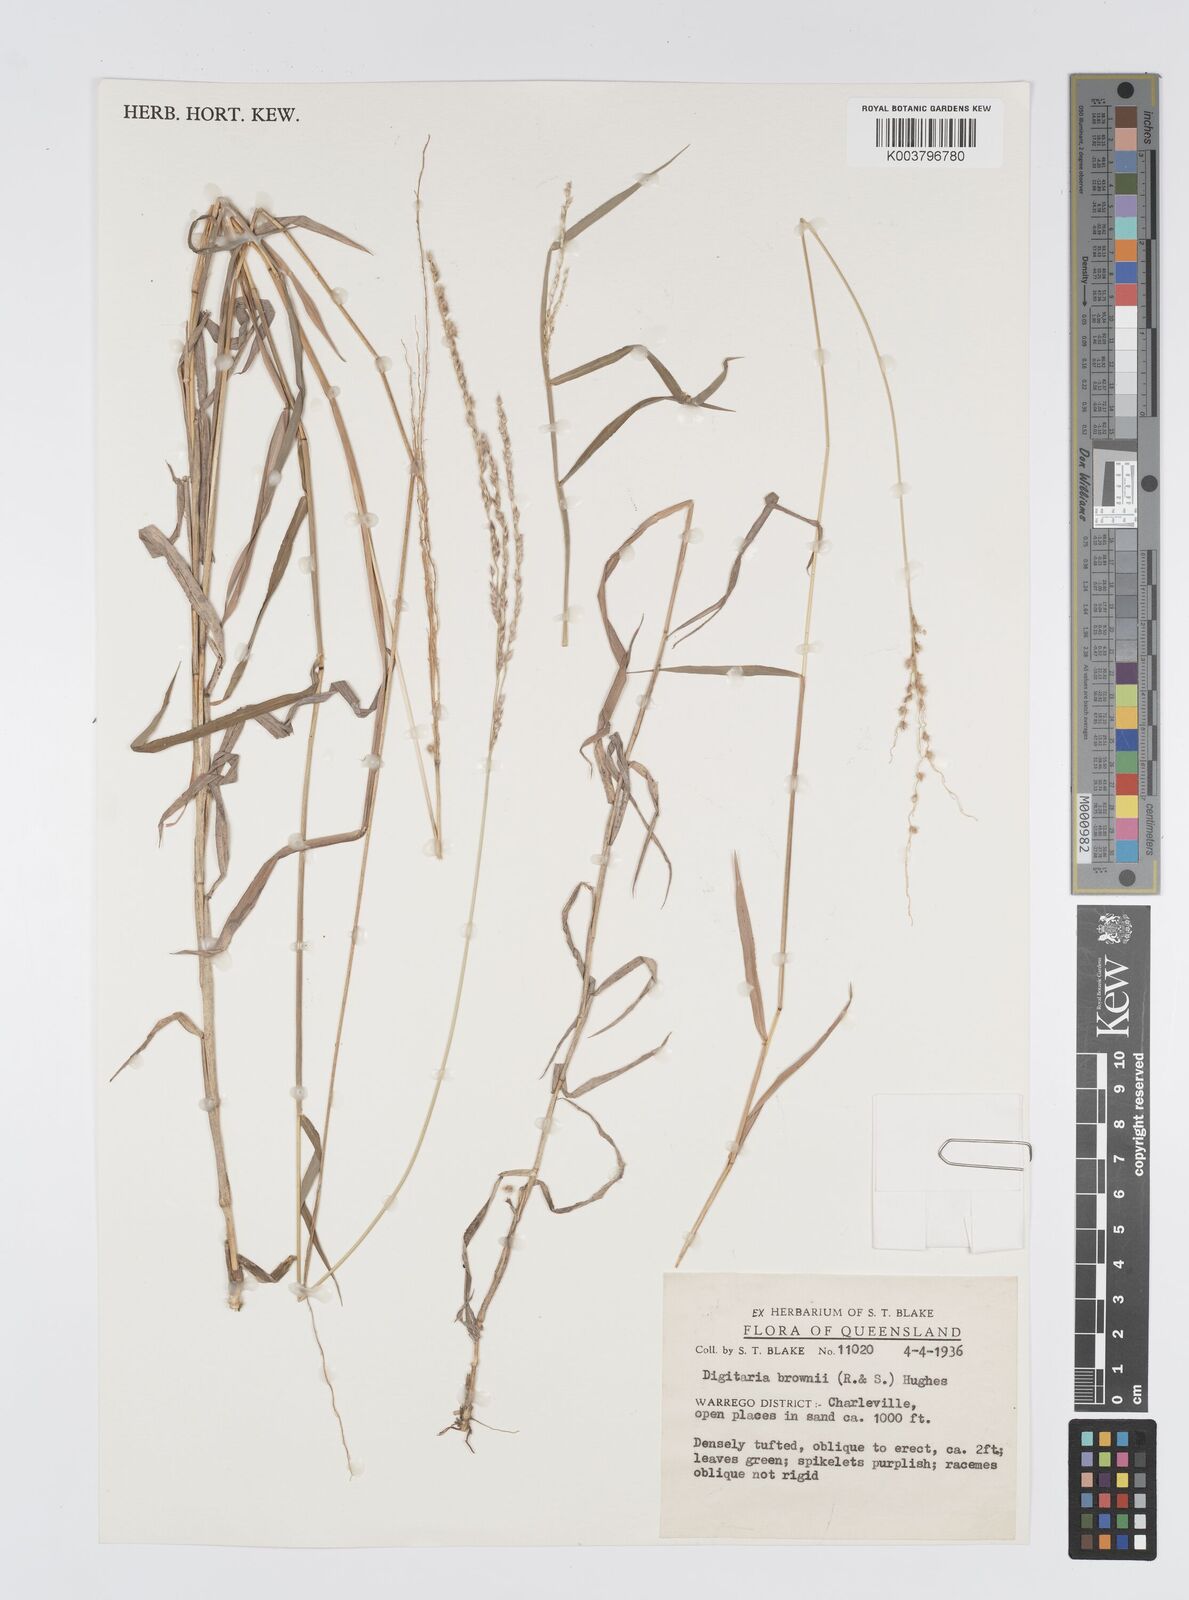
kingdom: Plantae
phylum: Tracheophyta
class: Liliopsida
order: Poales
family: Poaceae
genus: Digitaria
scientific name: Digitaria brownii
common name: Cotton grass
